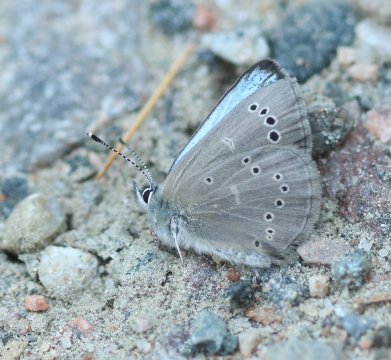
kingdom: Animalia
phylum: Arthropoda
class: Insecta
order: Lepidoptera
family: Lycaenidae
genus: Glaucopsyche
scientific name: Glaucopsyche lygdamus
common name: Silvery Blue
